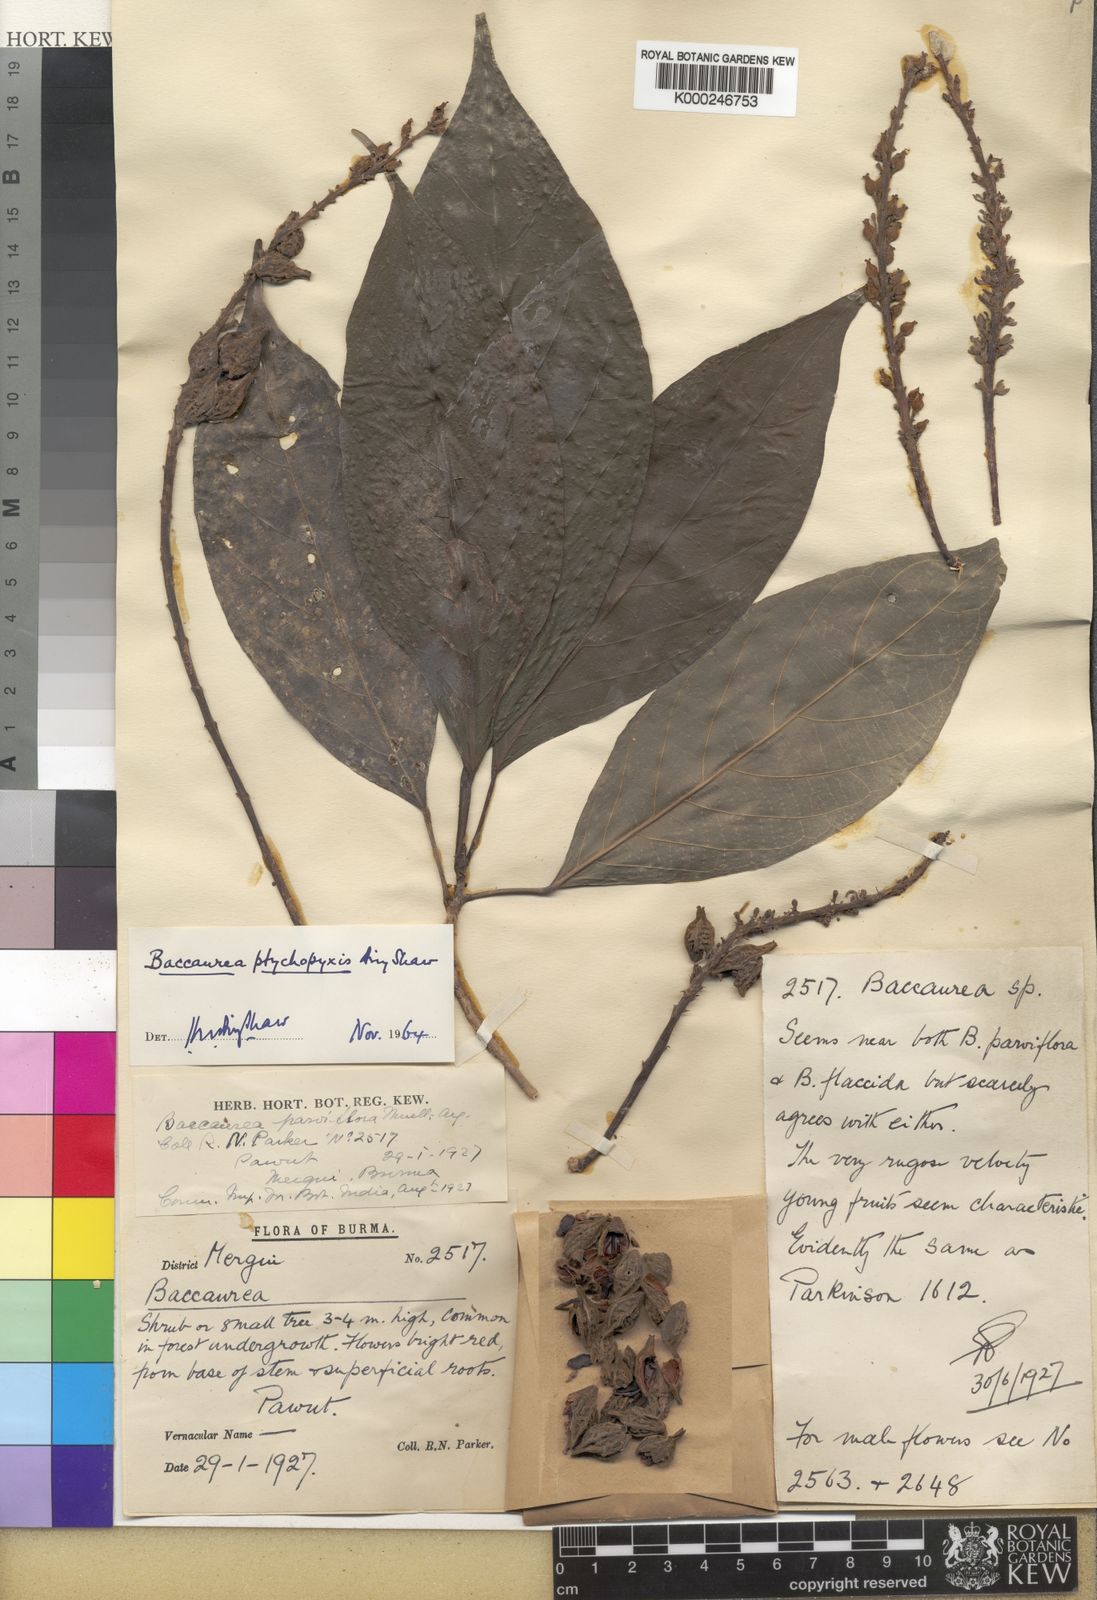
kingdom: Plantae
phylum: Tracheophyta
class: Magnoliopsida
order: Malpighiales
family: Phyllanthaceae
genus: Baccaurea
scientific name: Baccaurea ptychopyxis
